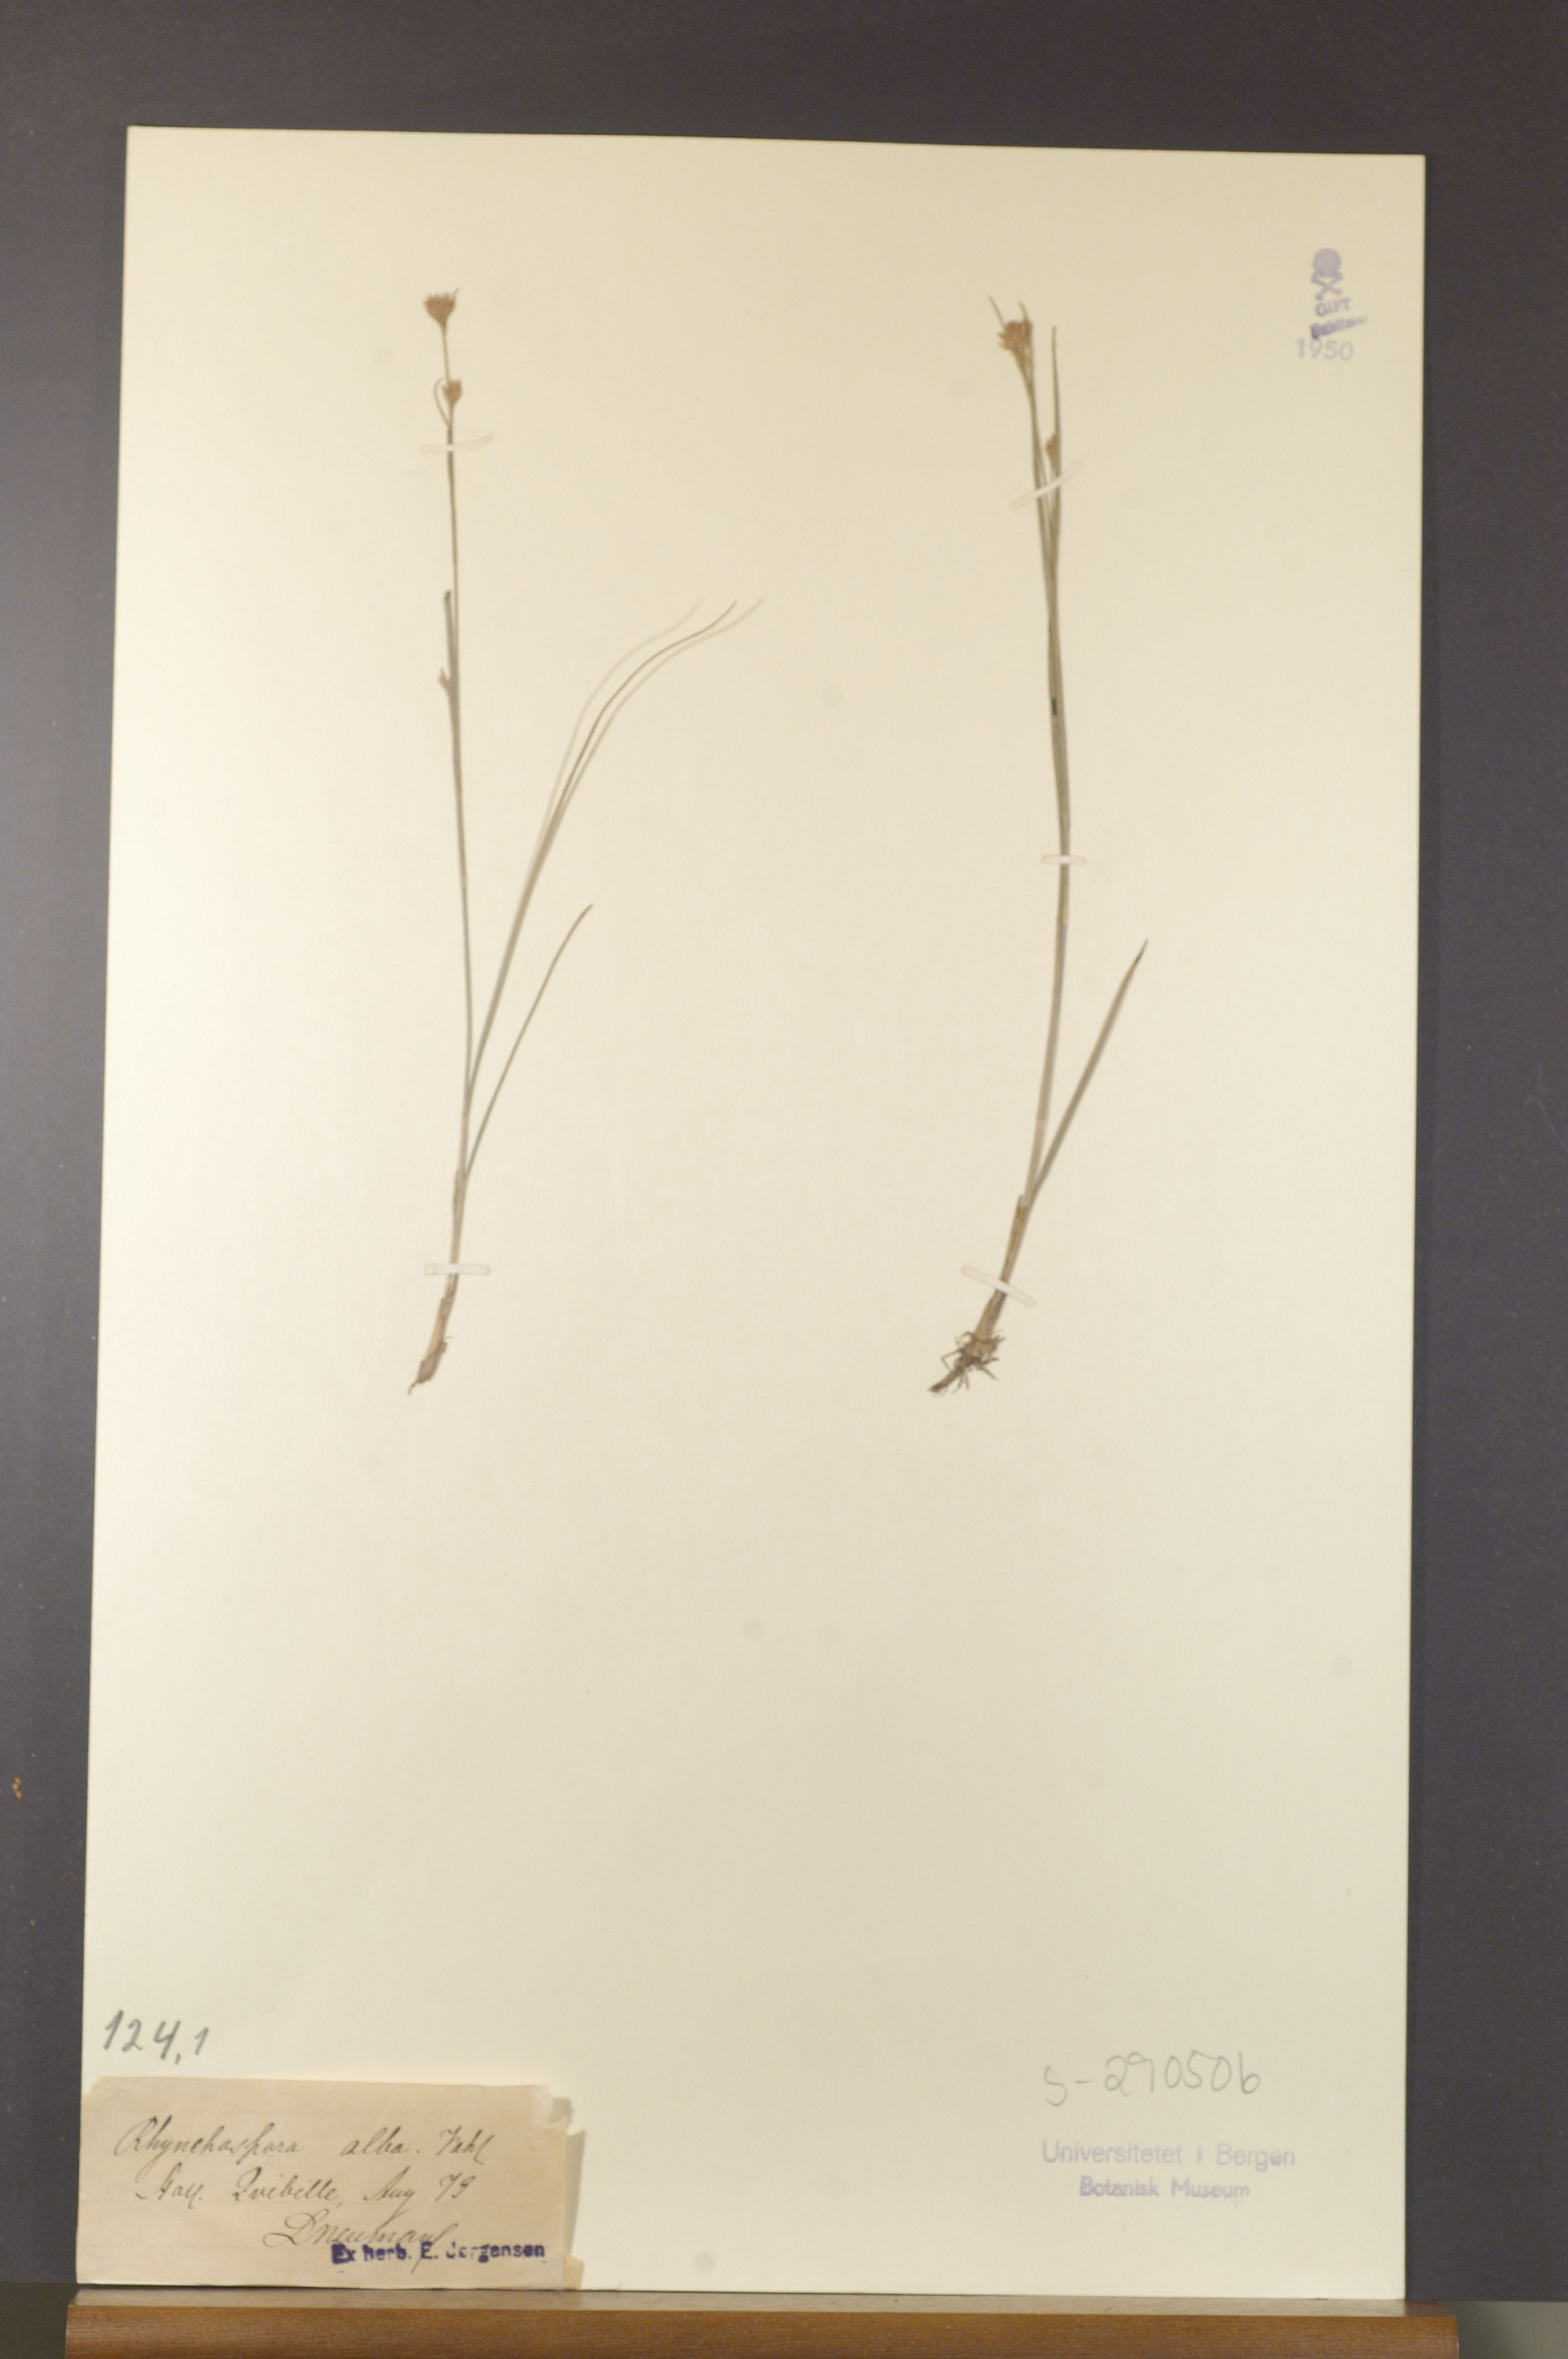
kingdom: Plantae
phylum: Tracheophyta
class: Liliopsida
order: Poales
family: Cyperaceae
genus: Rhynchospora
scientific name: Rhynchospora alba
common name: White beak-sedge
